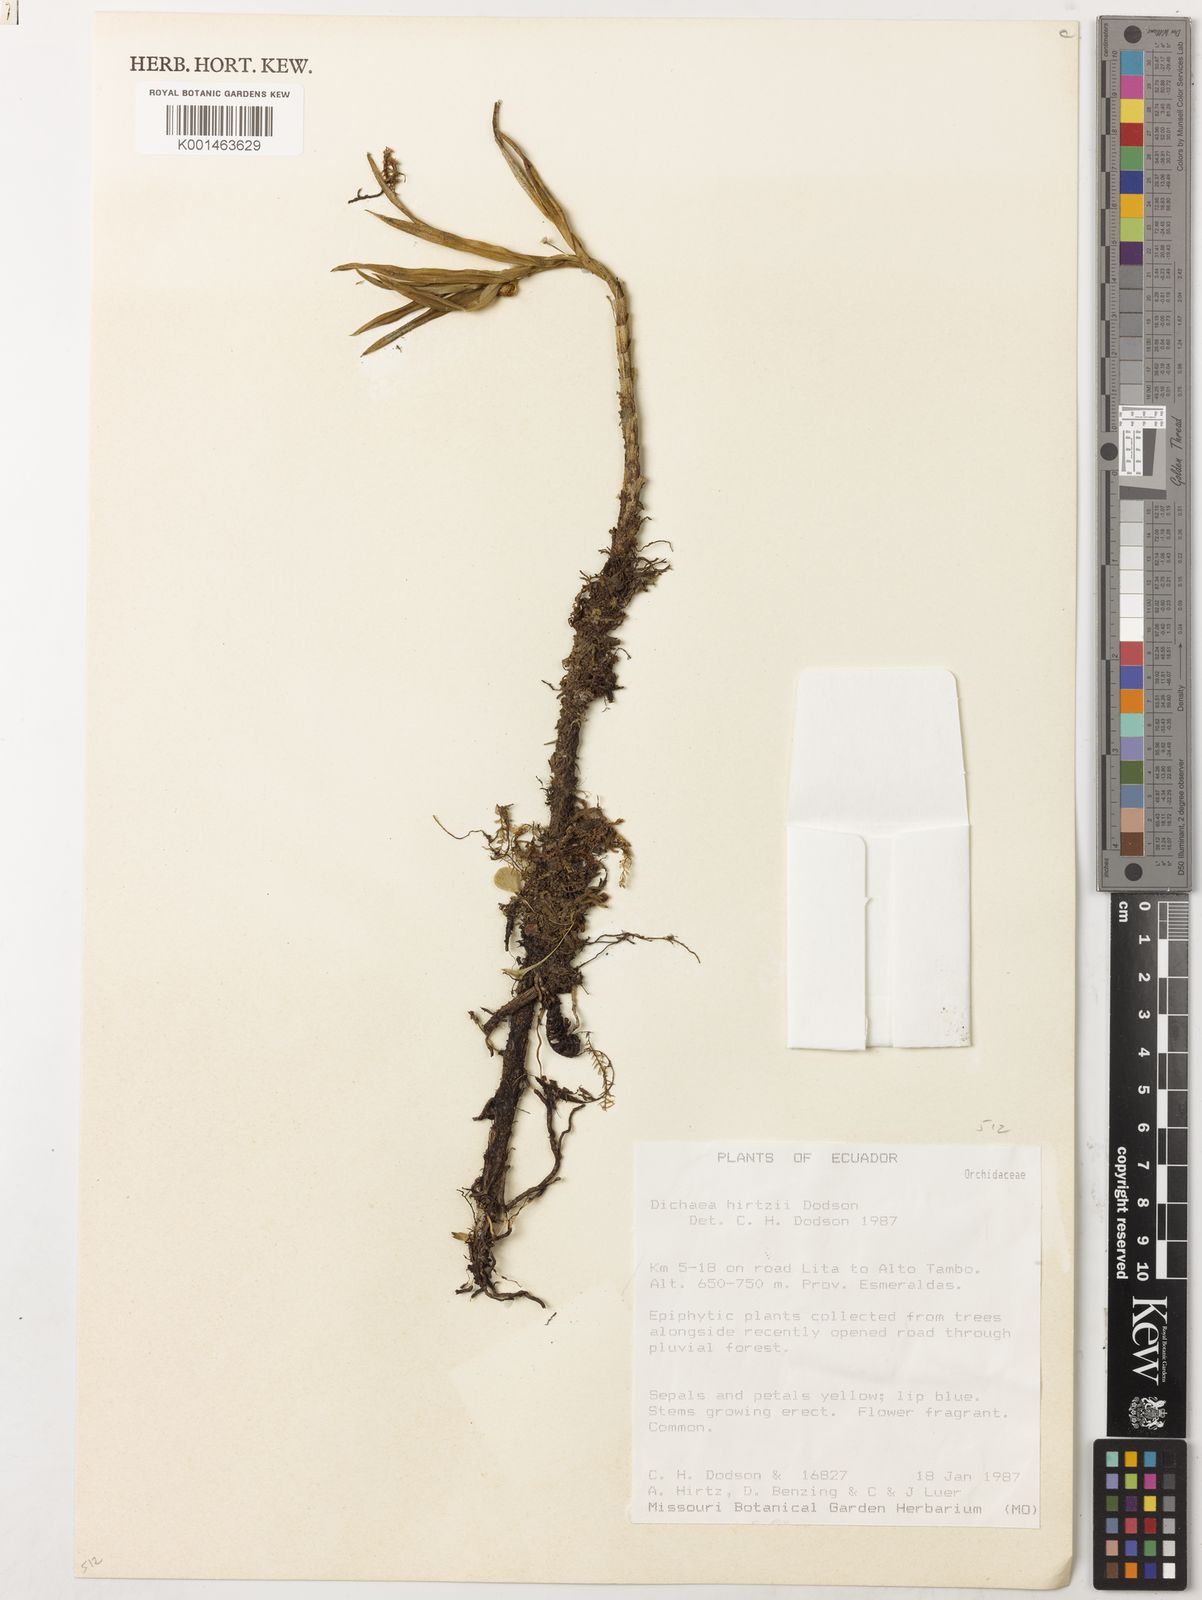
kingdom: Plantae
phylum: Tracheophyta
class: Liliopsida
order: Asparagales
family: Orchidaceae
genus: Dichaea
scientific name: Dichaea hirtzii
